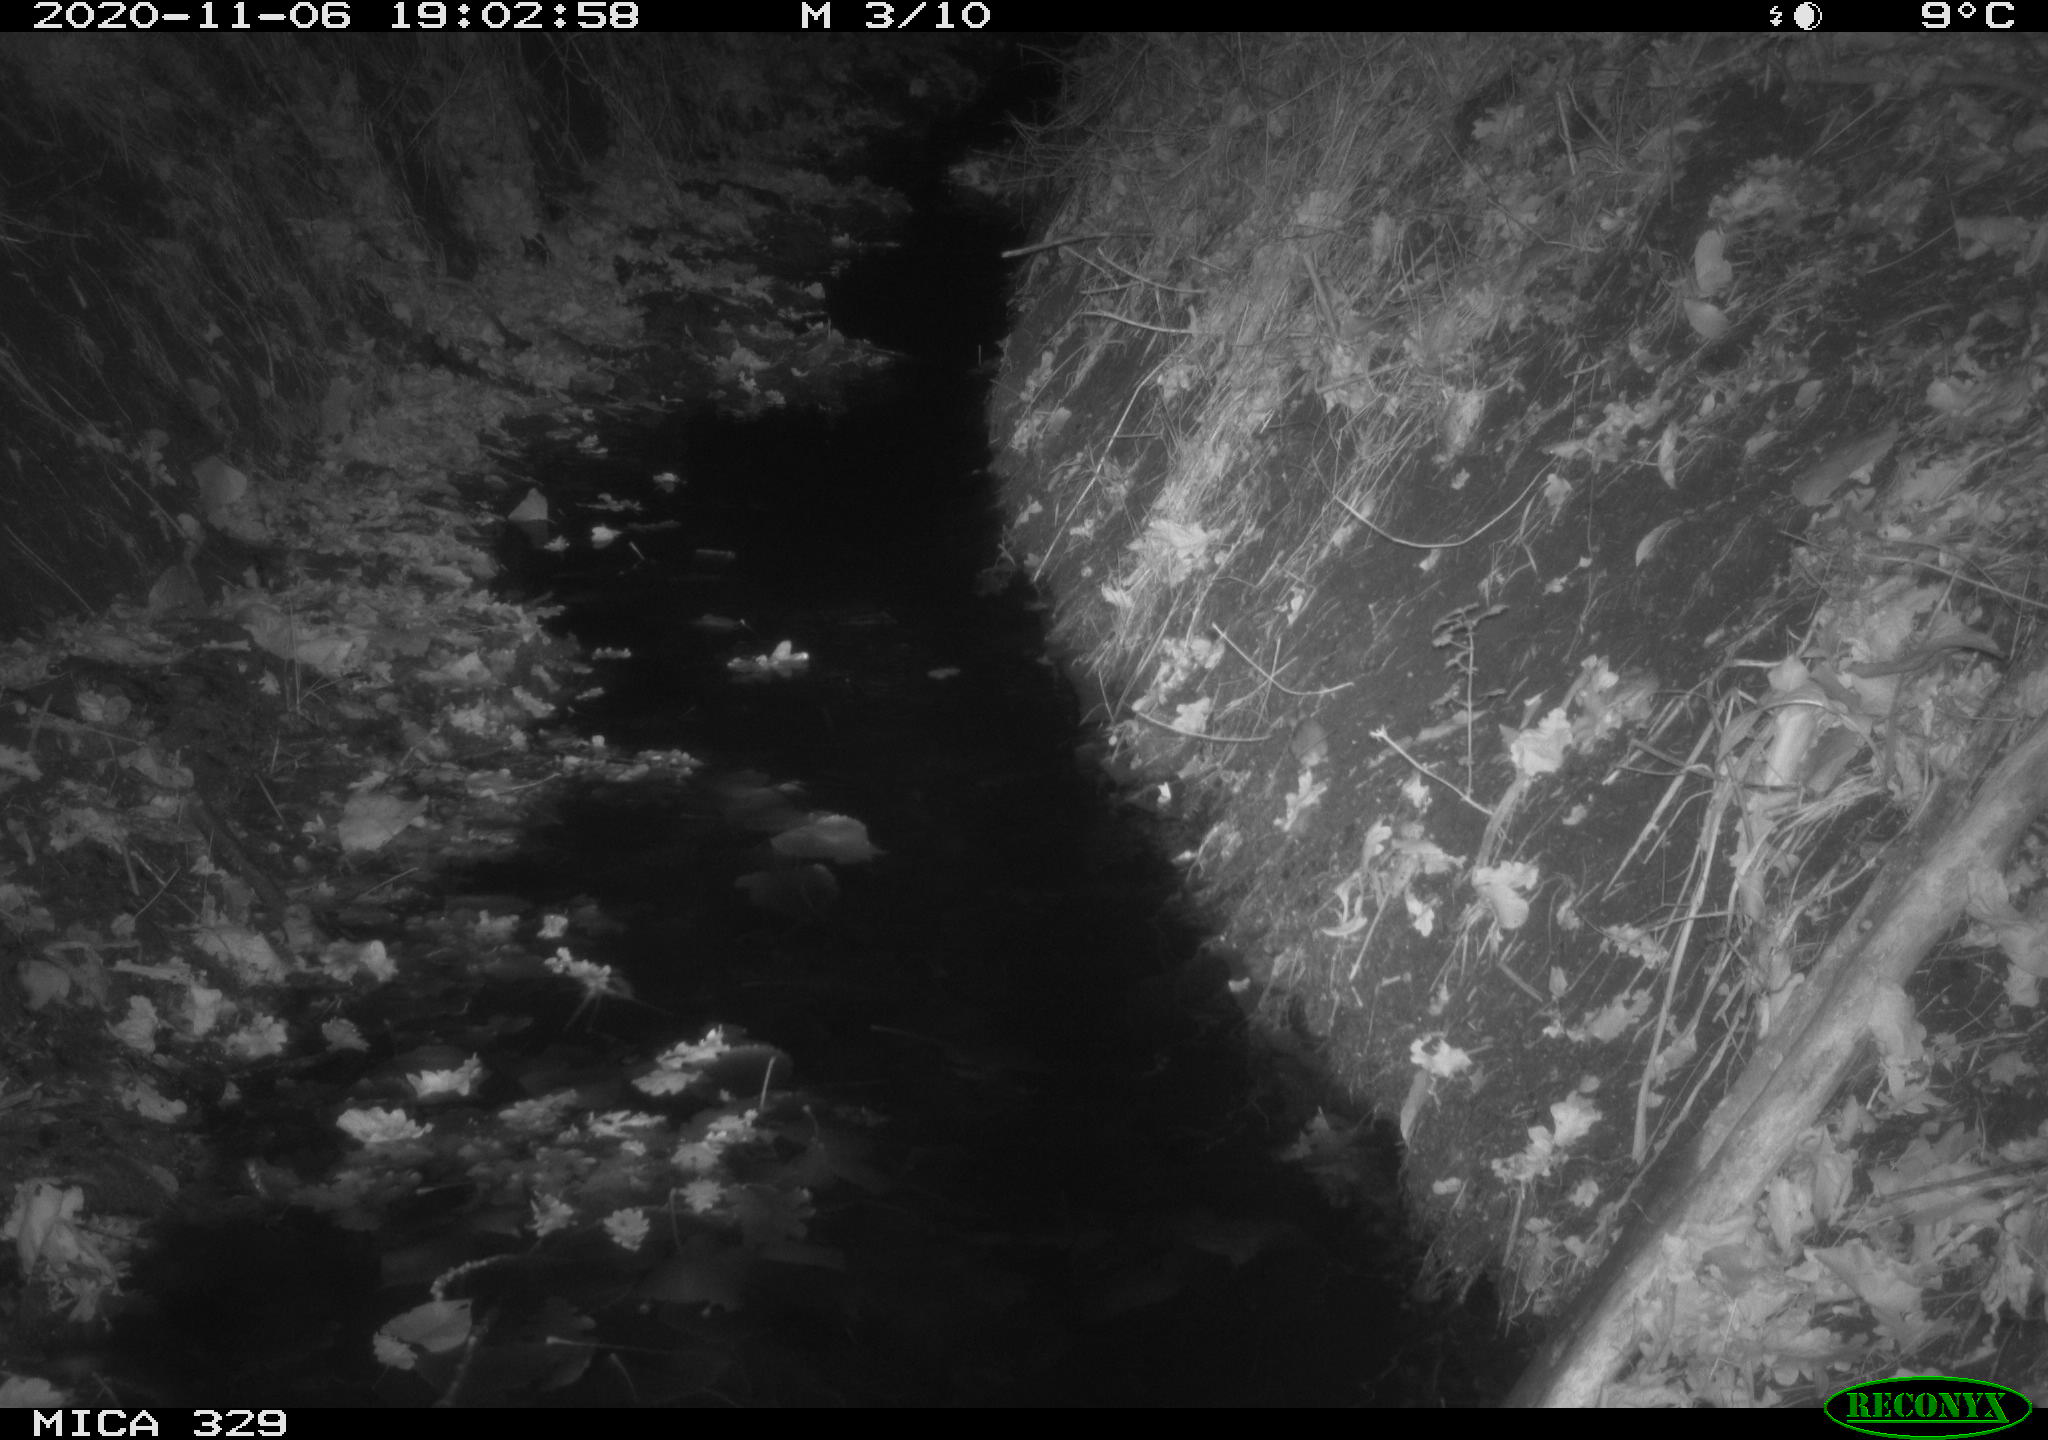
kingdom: Animalia
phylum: Chordata
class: Mammalia
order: Rodentia
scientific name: Rodentia
